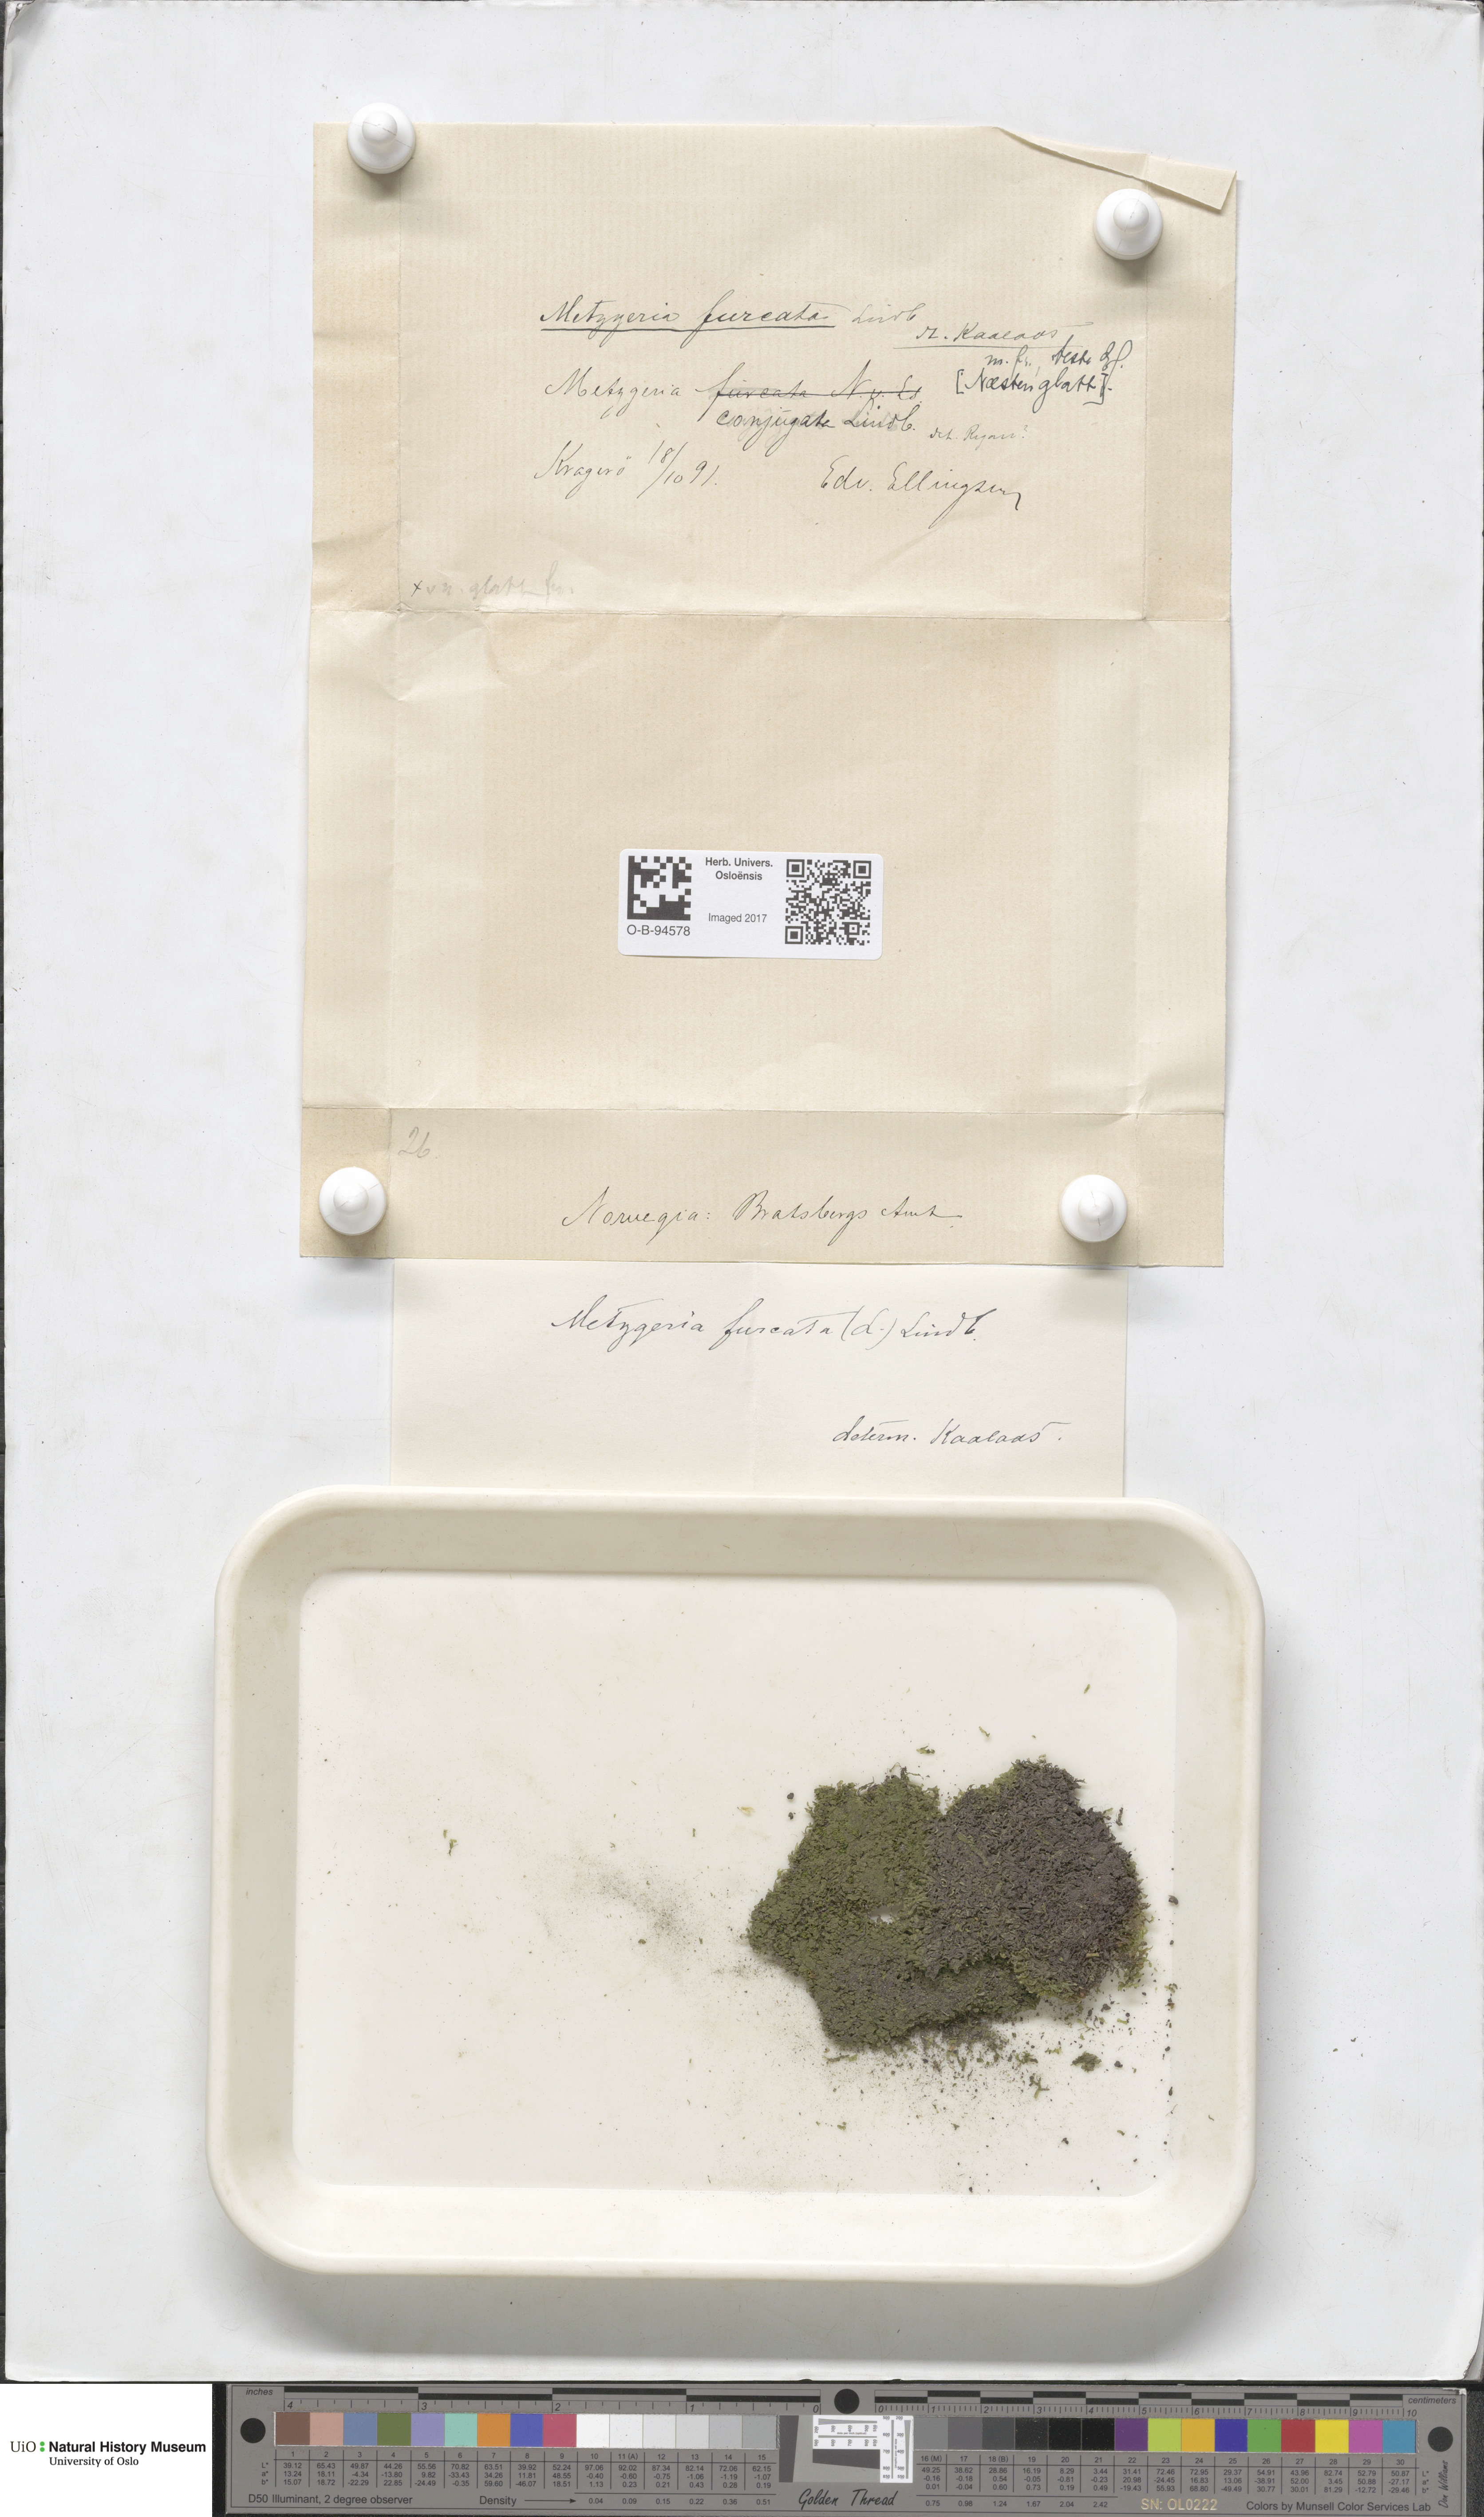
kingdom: Plantae
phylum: Marchantiophyta
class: Jungermanniopsida
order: Metzgeriales
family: Metzgeriaceae
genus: Metzgeria
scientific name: Metzgeria furcata
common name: Forked veilwort
